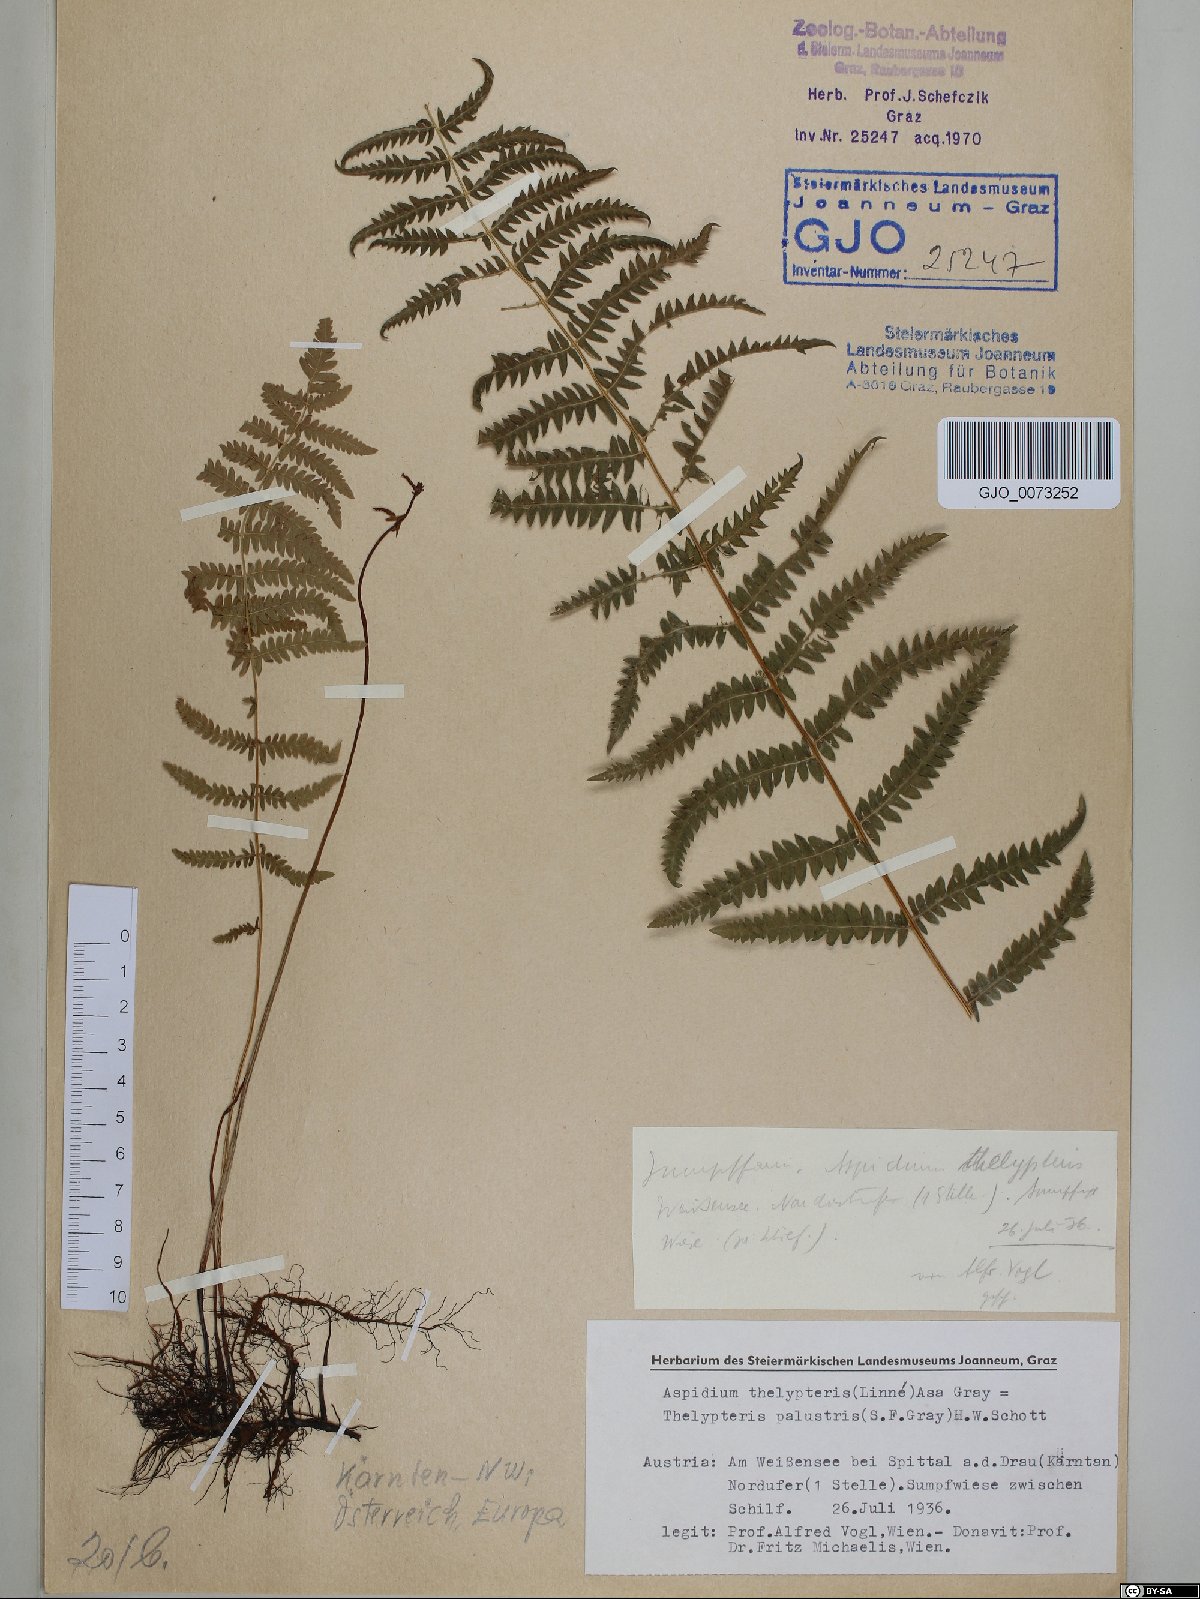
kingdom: Plantae
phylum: Tracheophyta
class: Polypodiopsida
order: Polypodiales
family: Thelypteridaceae
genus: Thelypteris
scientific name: Thelypteris palustris
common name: Marsh fern
